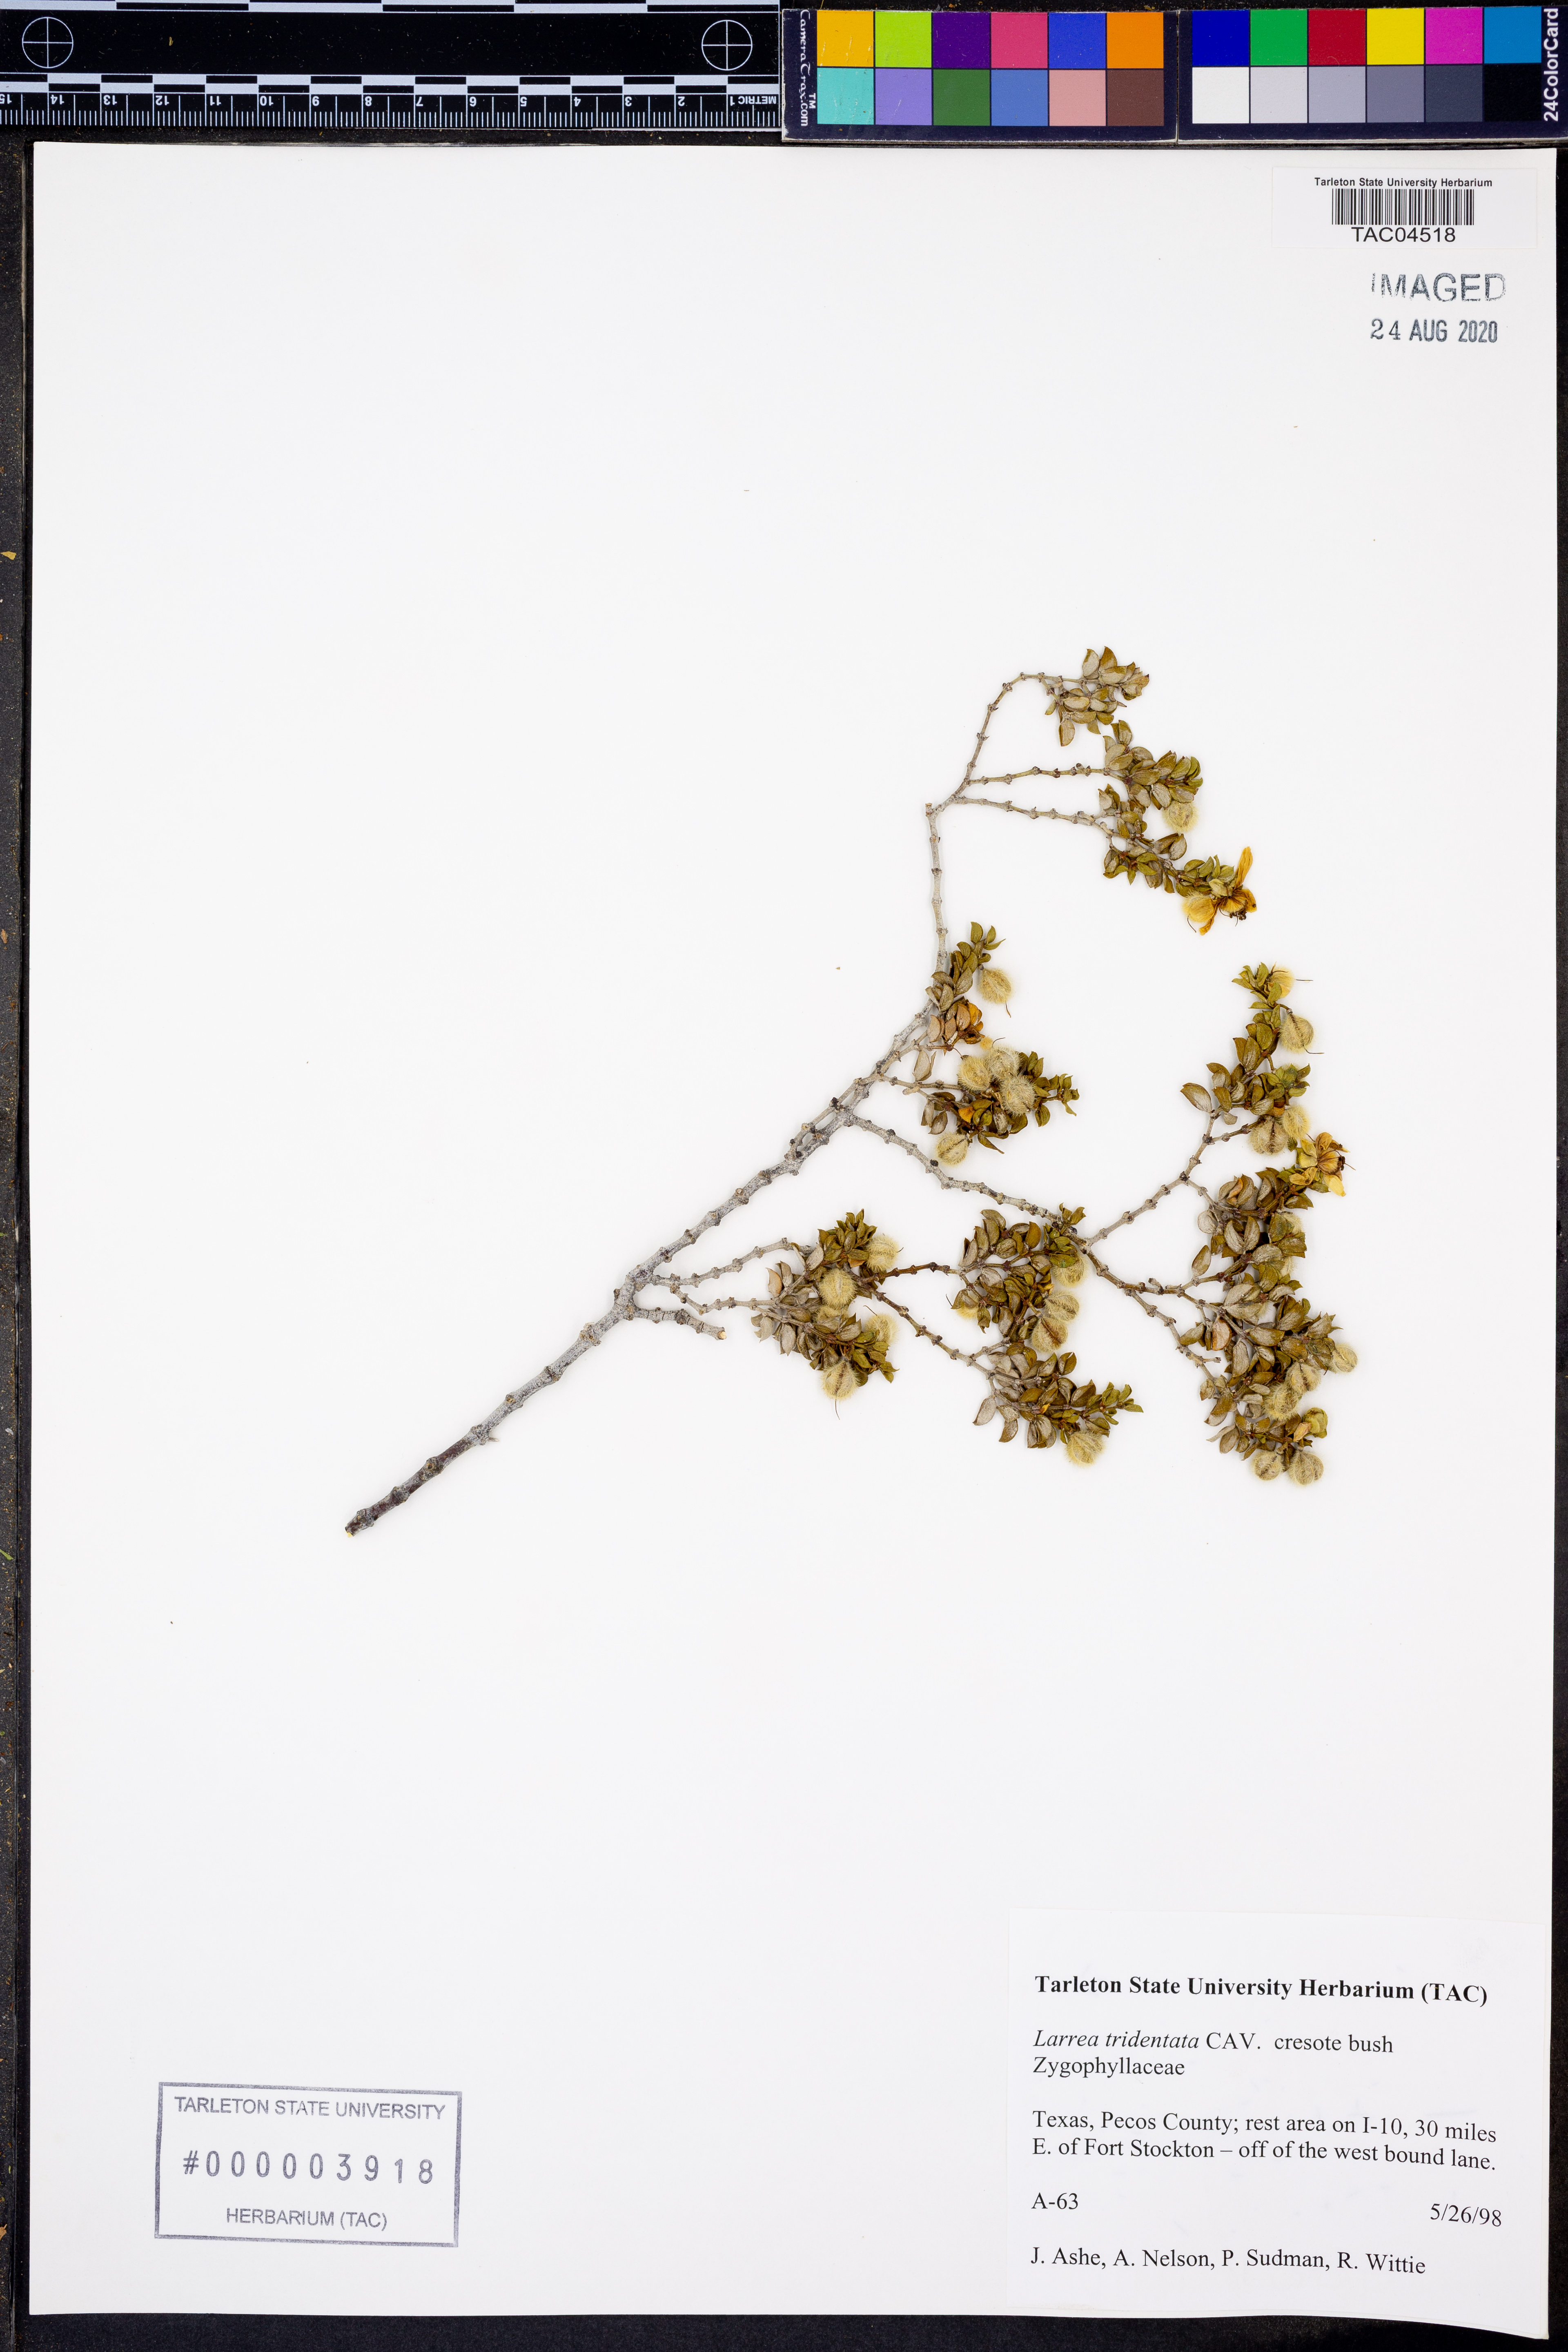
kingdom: Plantae
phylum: Tracheophyta
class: Magnoliopsida
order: Zygophyllales
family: Zygophyllaceae
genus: Larrea
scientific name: Larrea tridentata
